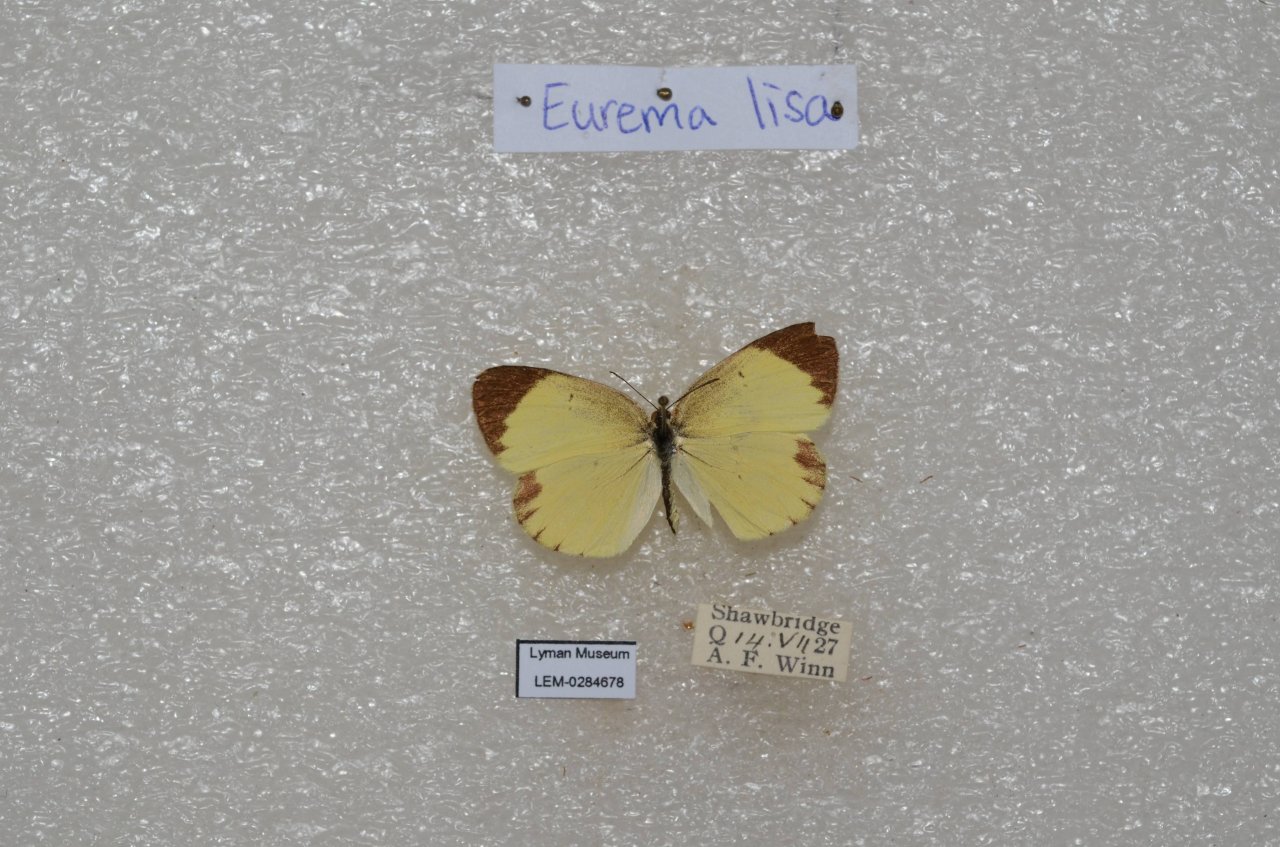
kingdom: Animalia
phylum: Arthropoda
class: Insecta
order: Lepidoptera
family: Pieridae
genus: Pyrisitia
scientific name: Pyrisitia lisa
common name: Little Yellow
